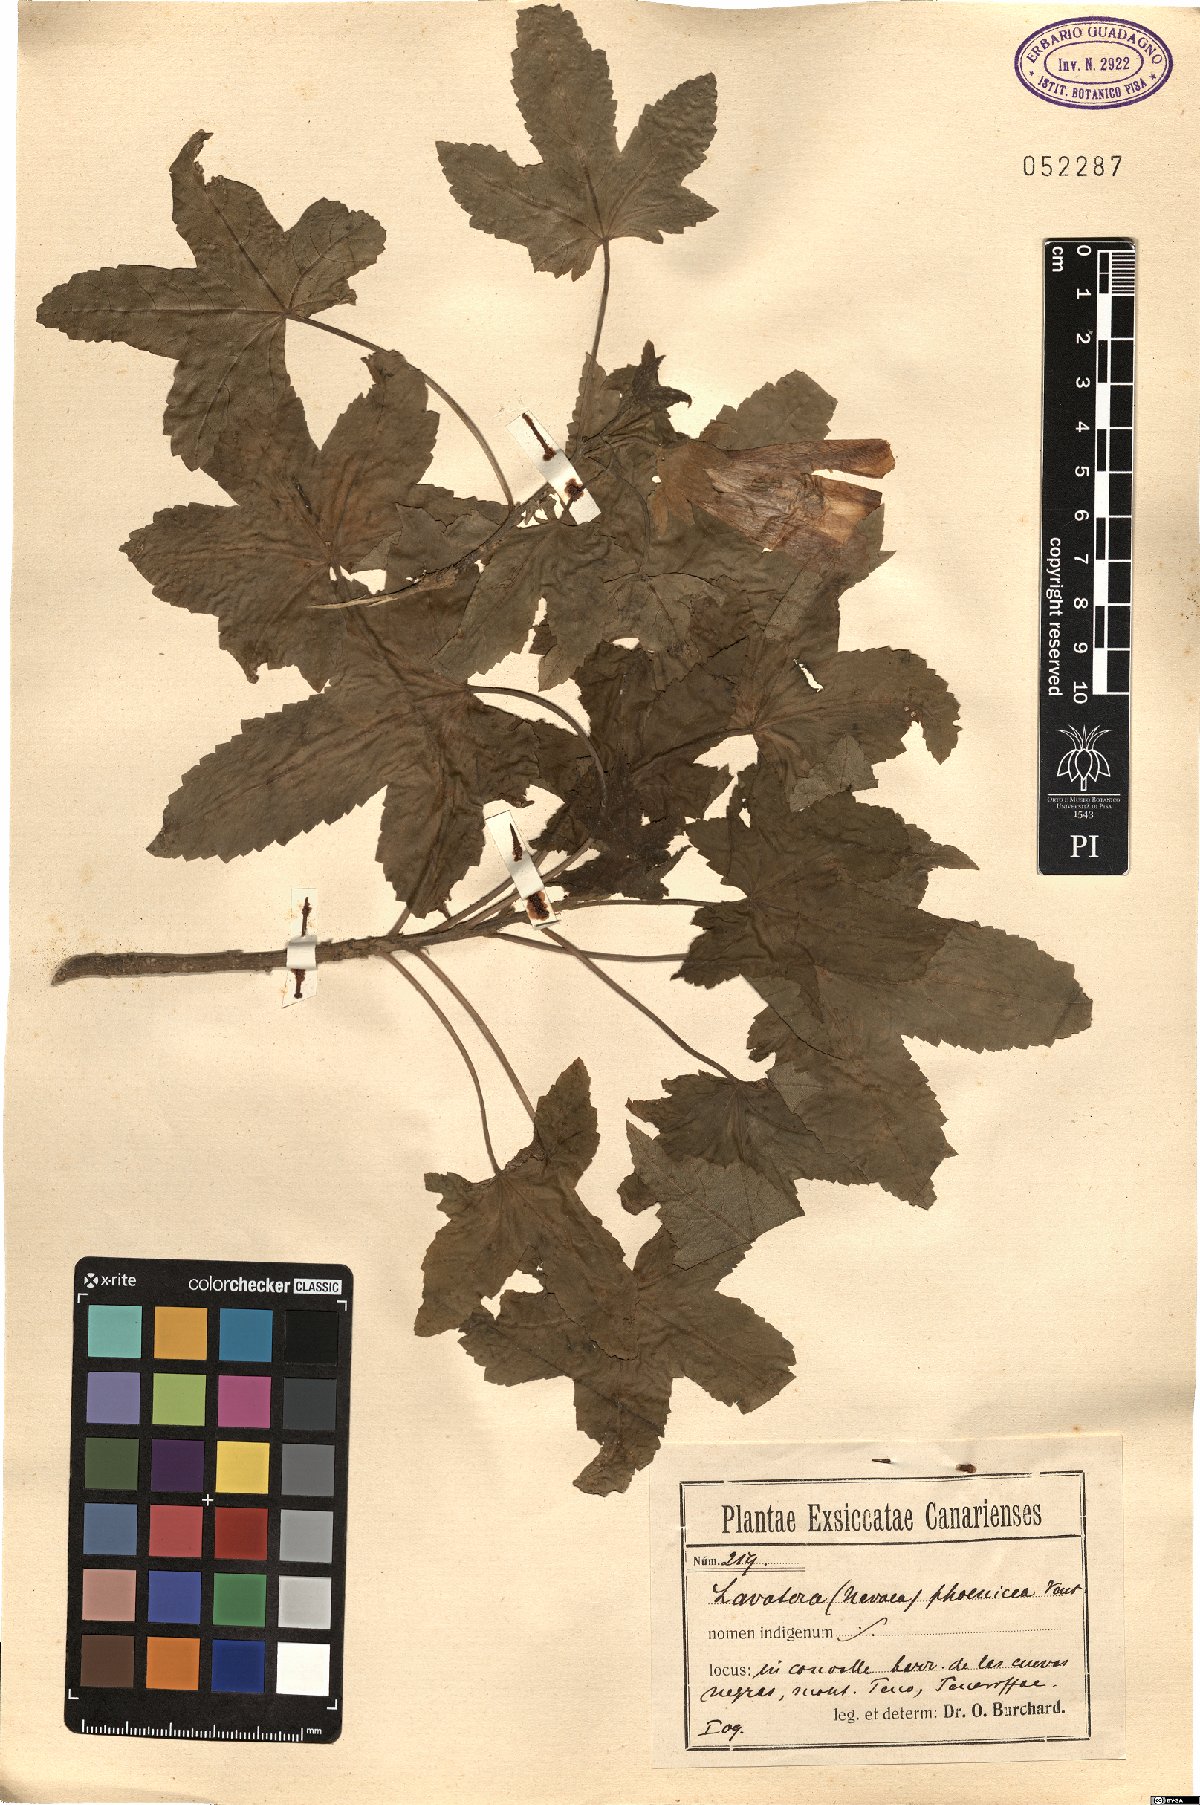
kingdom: Plantae
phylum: Tracheophyta
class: Magnoliopsida
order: Malvales
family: Malvaceae
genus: Malva
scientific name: Malva phoenicea
